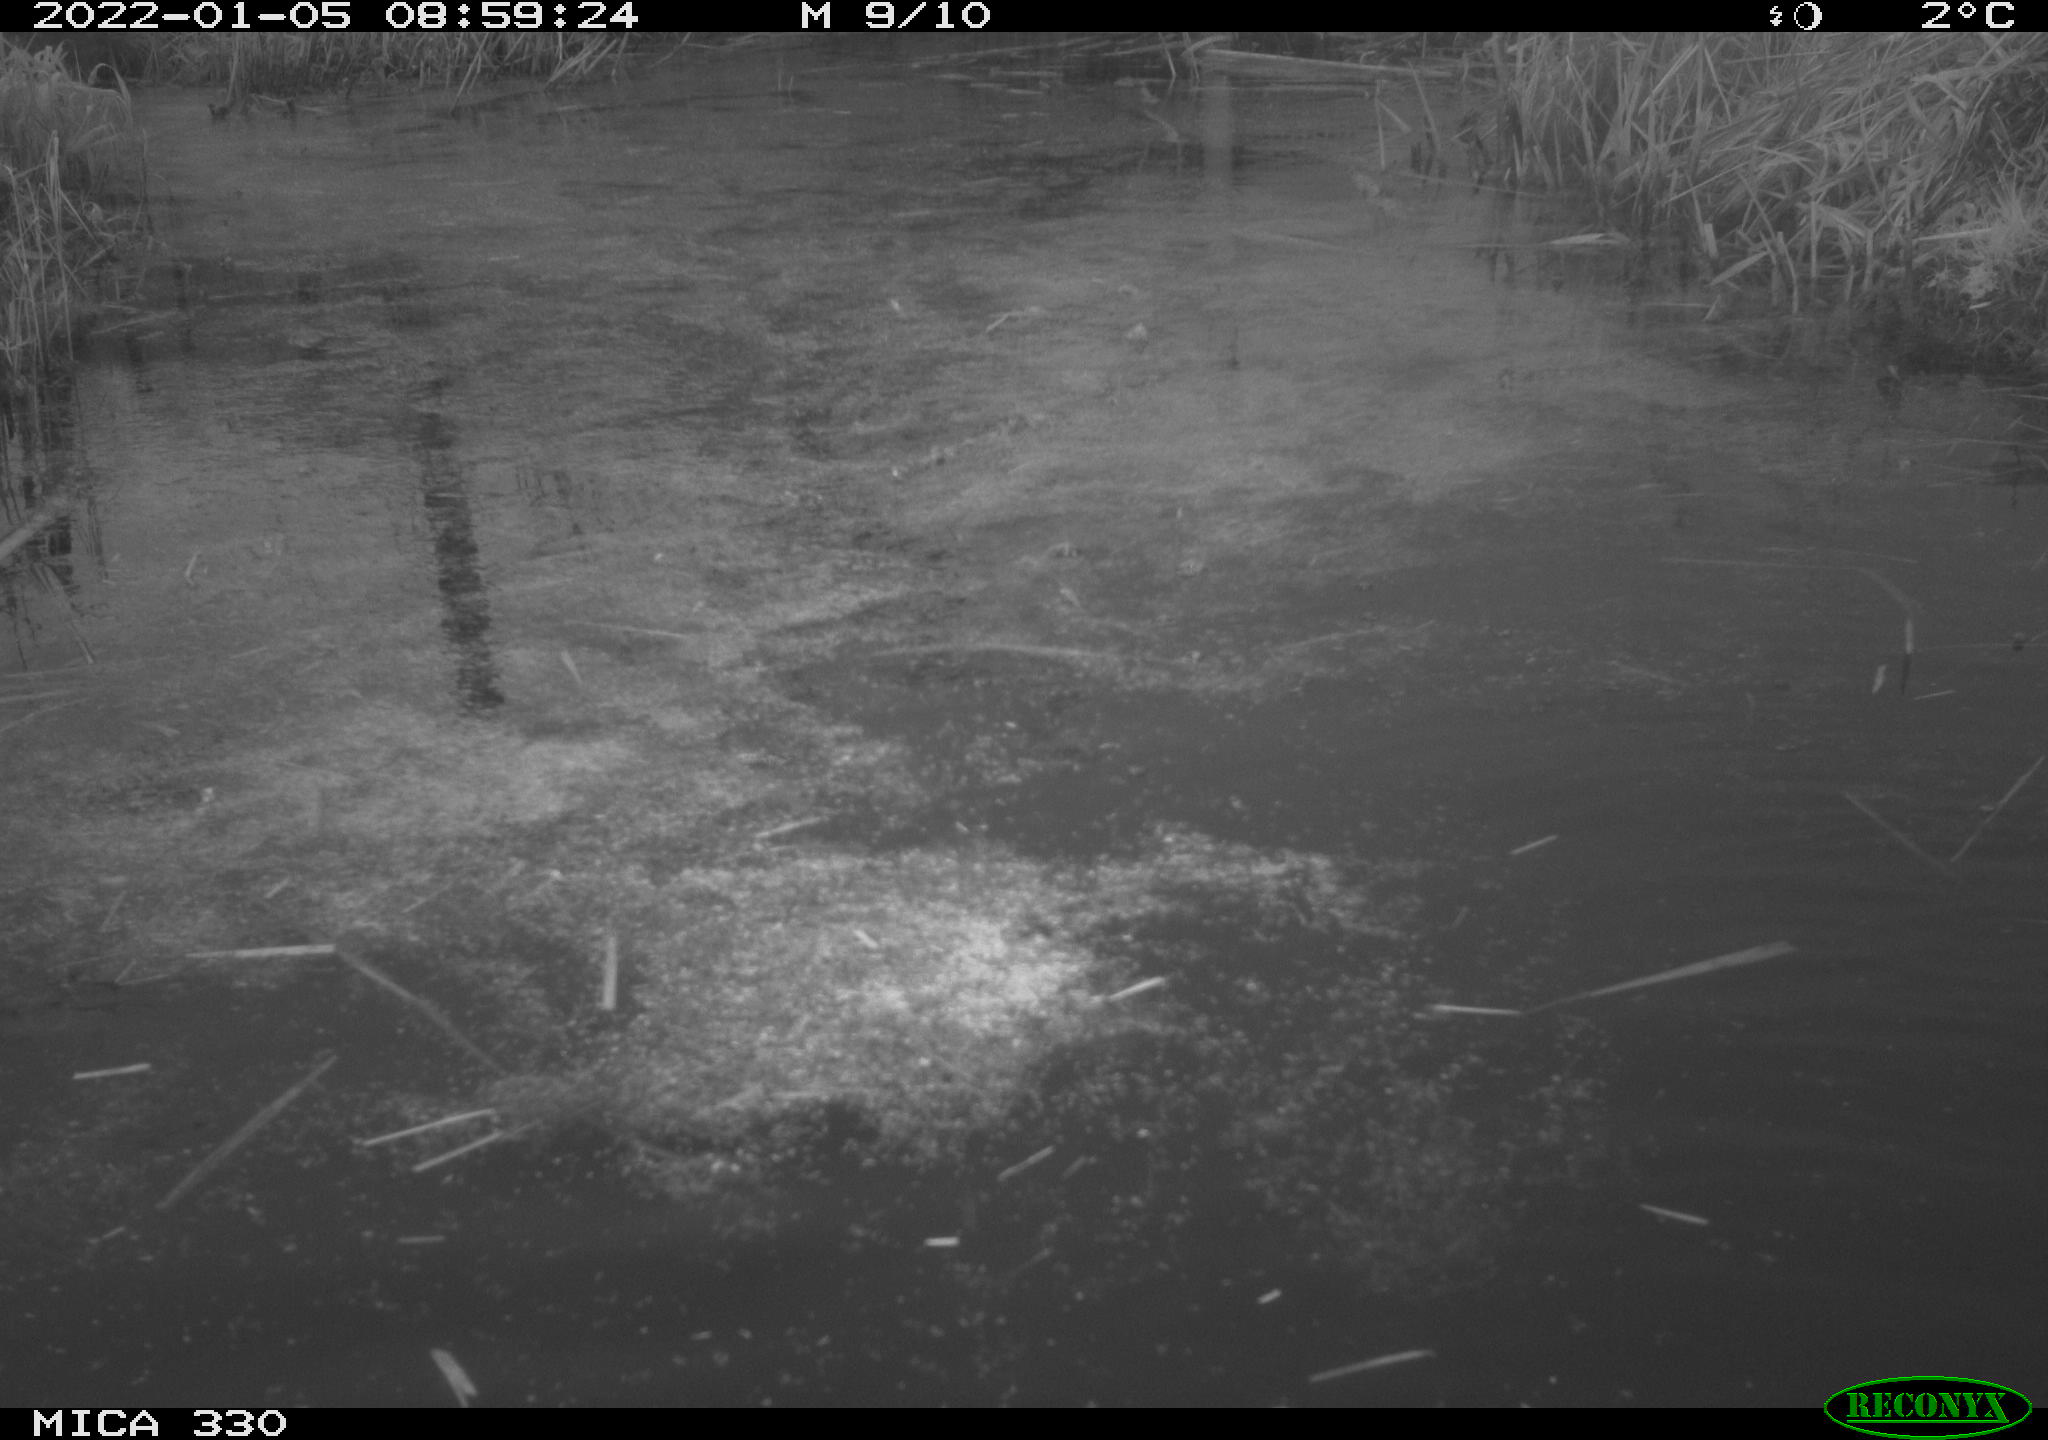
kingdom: Animalia
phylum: Chordata
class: Aves
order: Gruiformes
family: Rallidae
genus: Gallinula
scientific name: Gallinula chloropus
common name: Common moorhen
